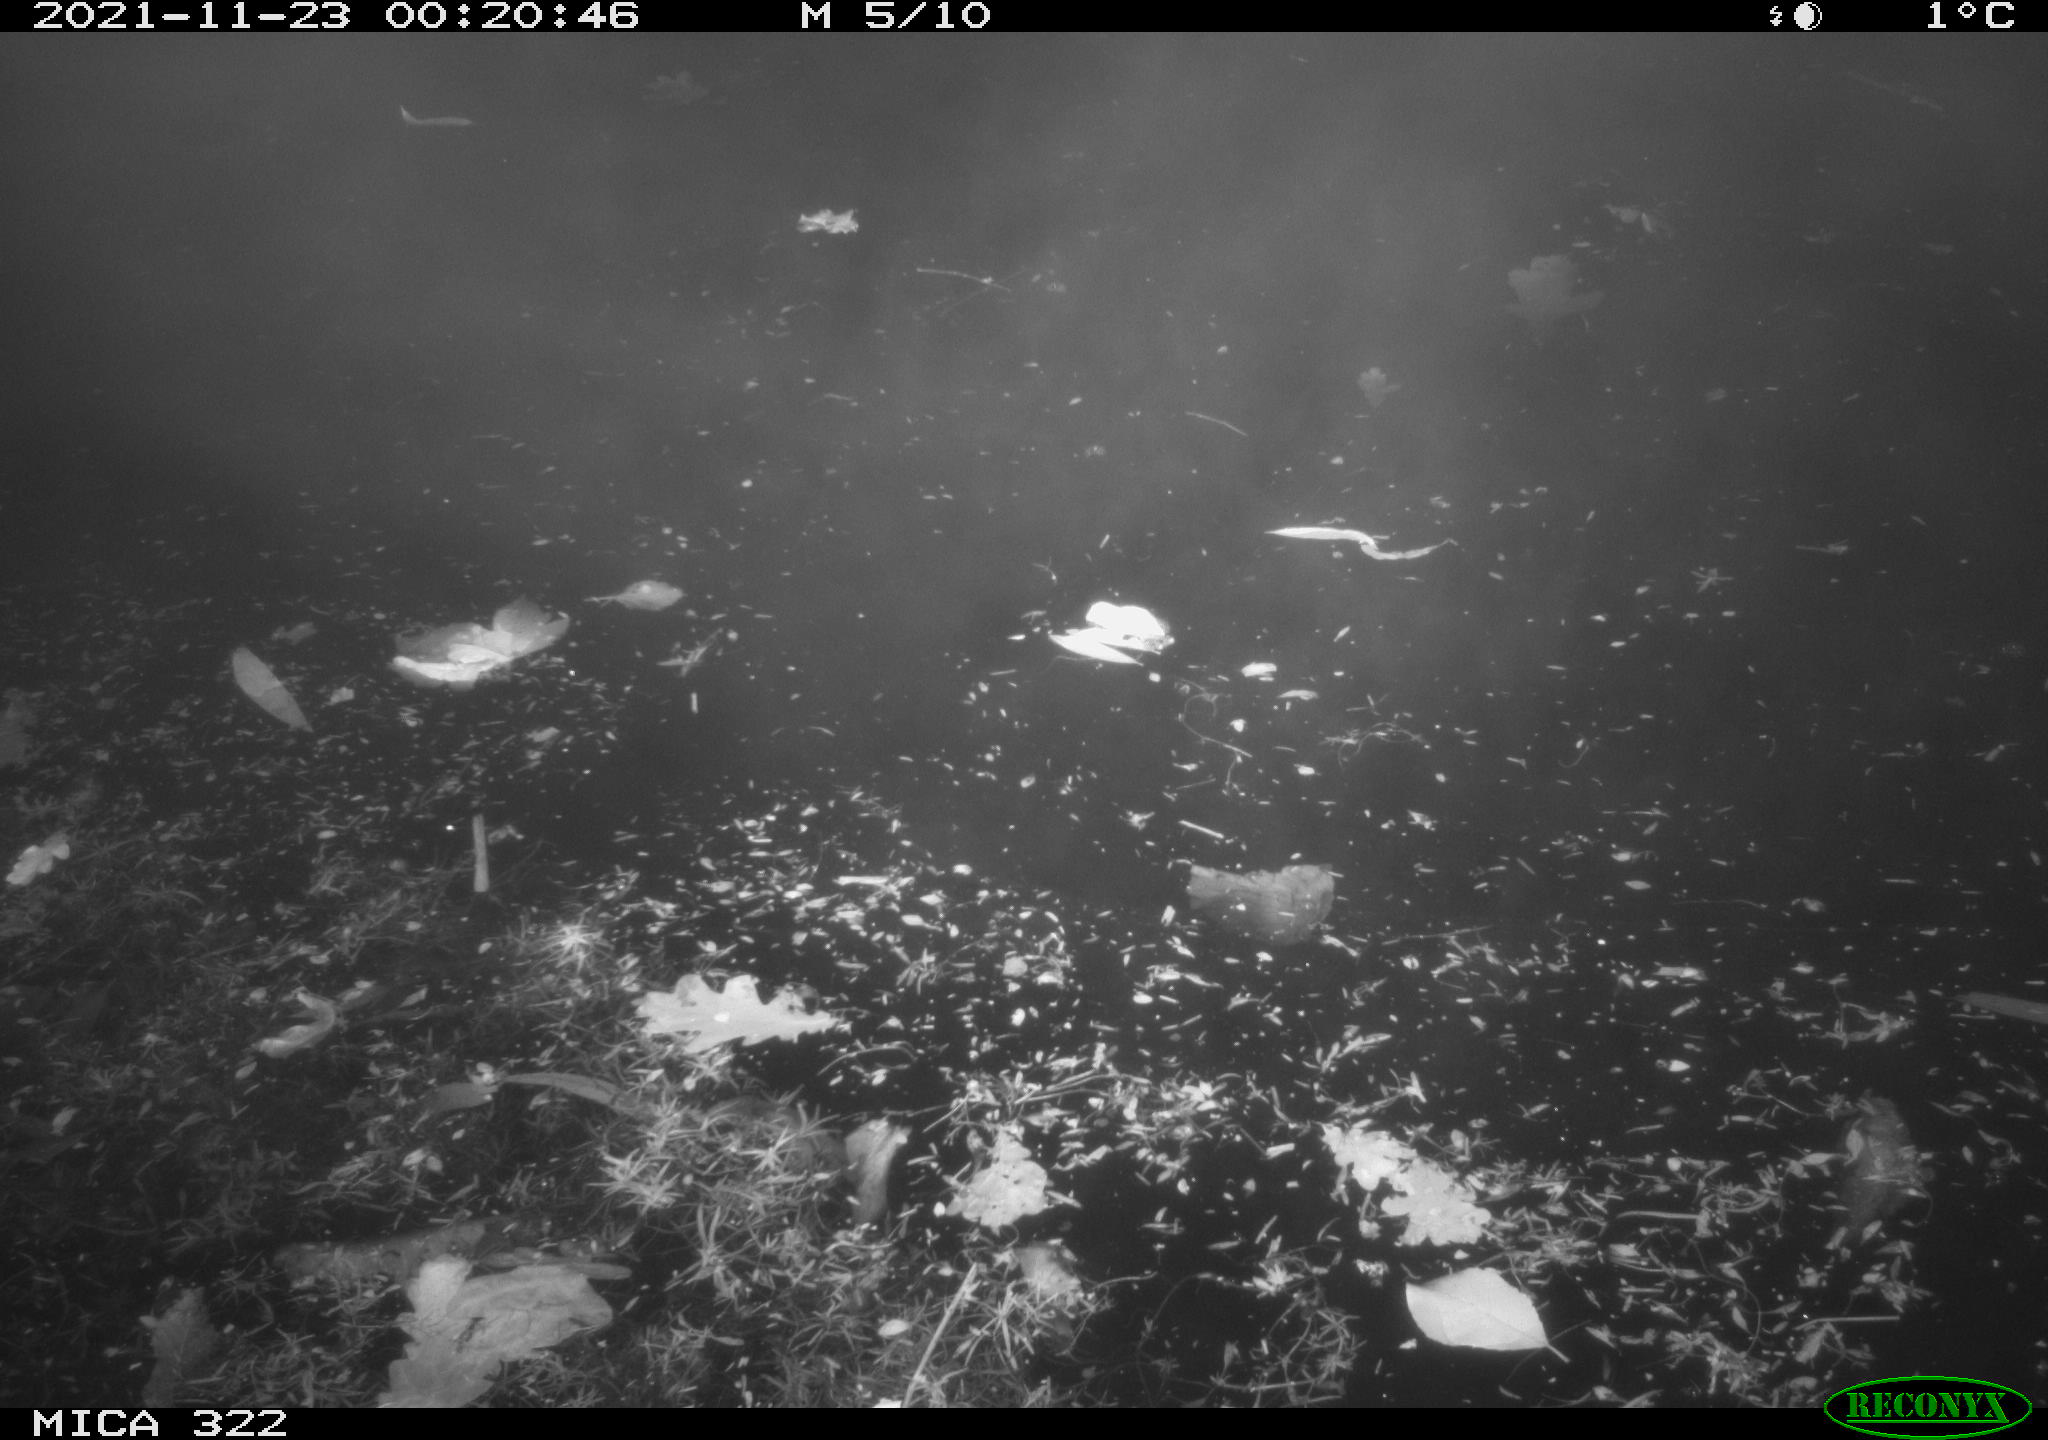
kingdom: Animalia
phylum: Chordata
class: Mammalia
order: Rodentia
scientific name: Rodentia
